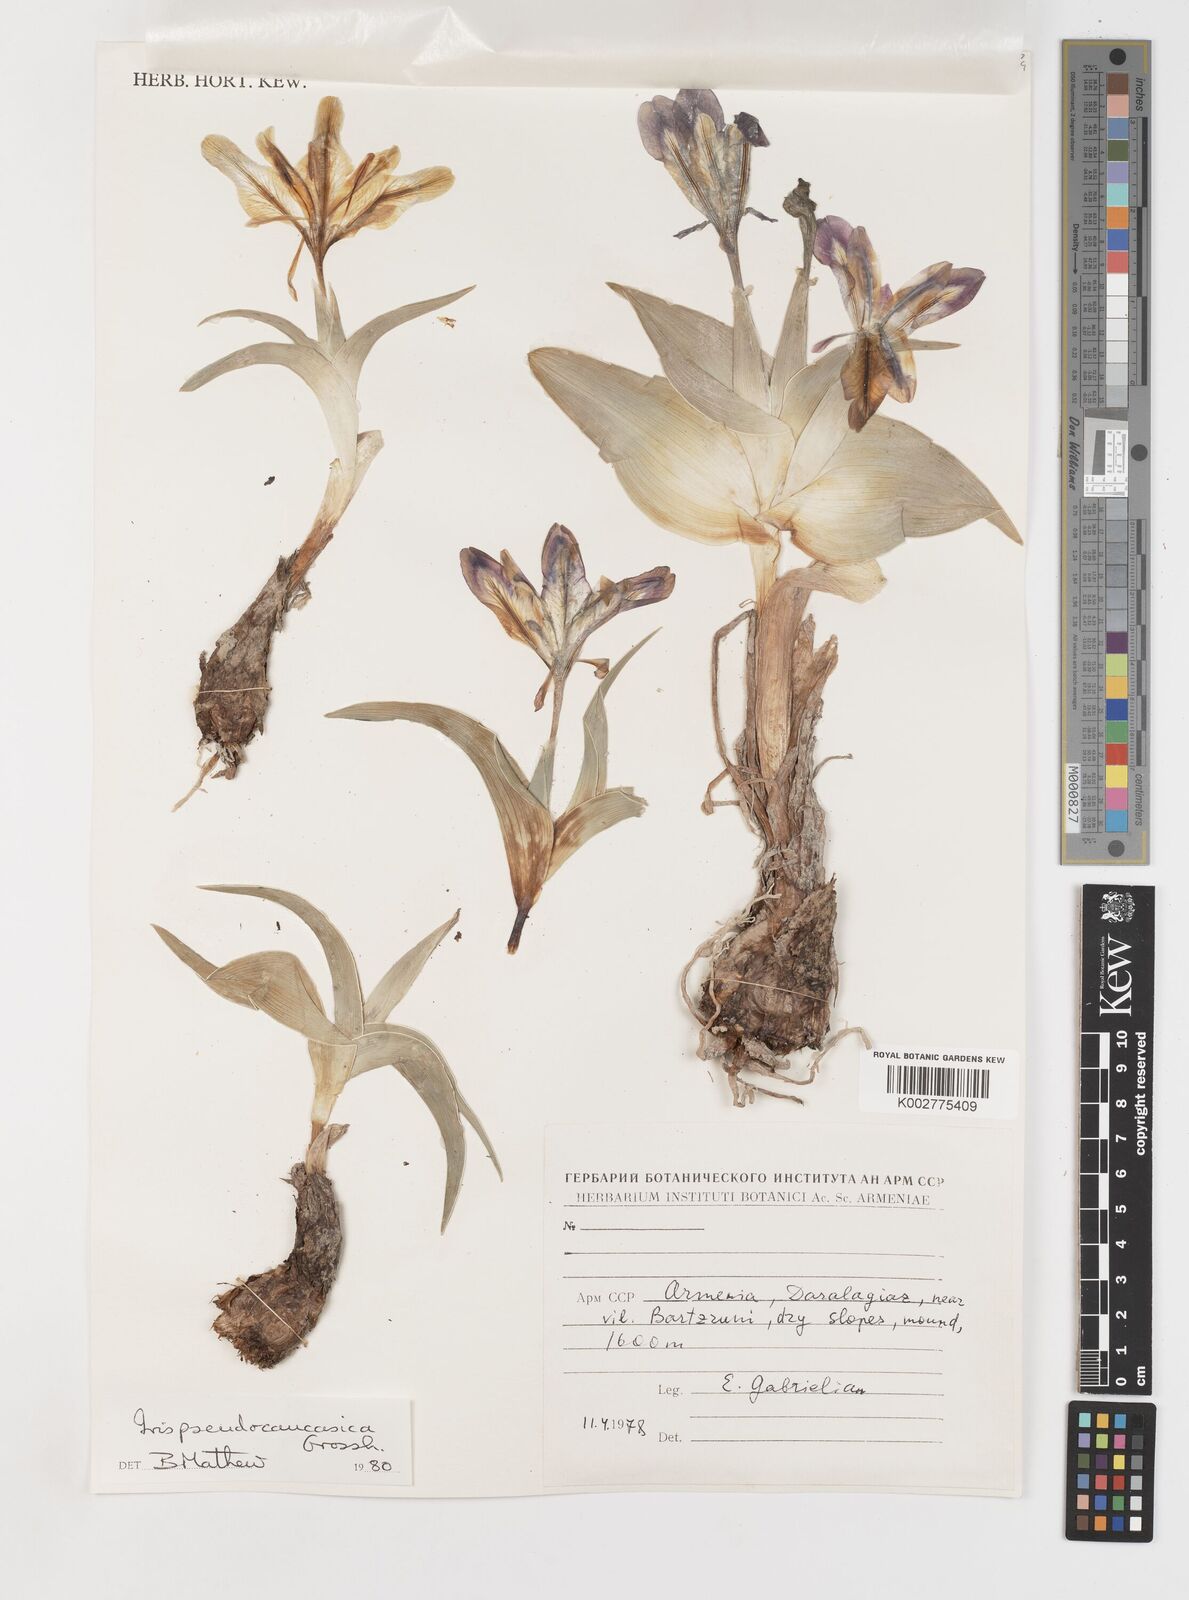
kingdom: Plantae
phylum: Tracheophyta
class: Liliopsida
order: Asparagales
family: Iridaceae
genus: Iris
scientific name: Iris pseudocaucasica
